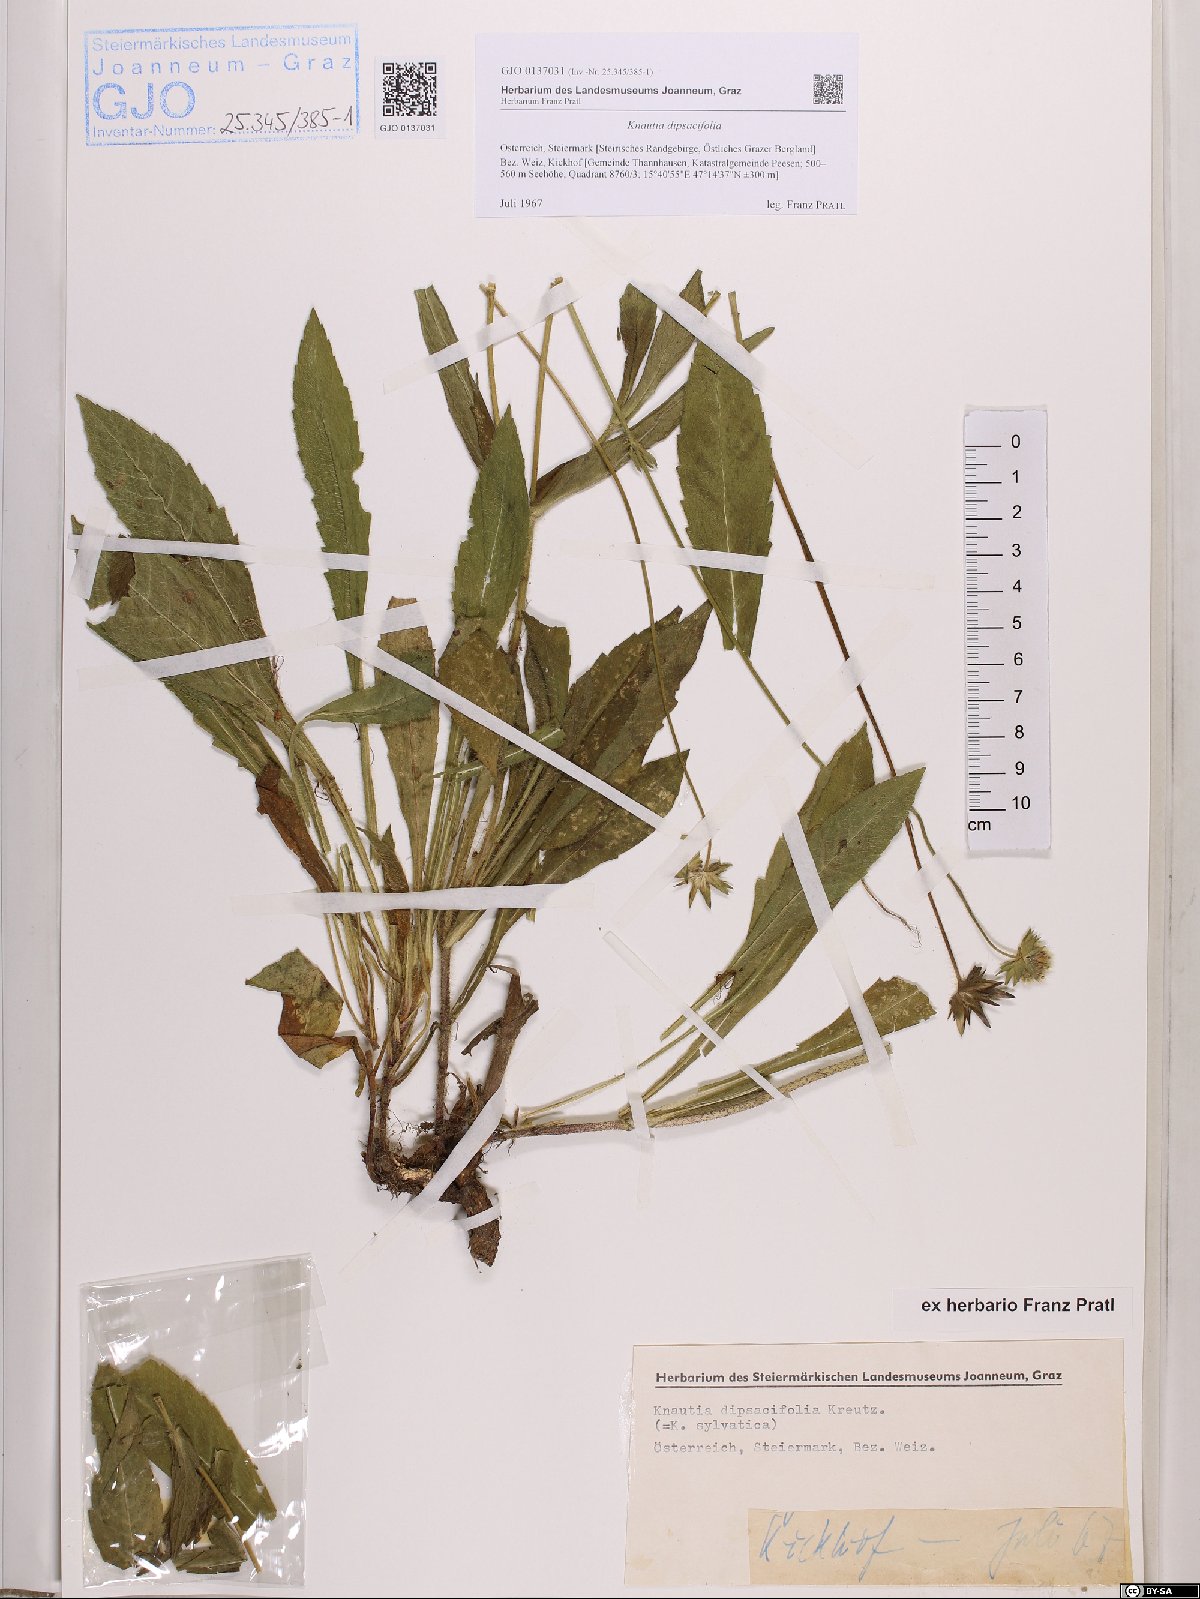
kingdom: Plantae
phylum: Tracheophyta
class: Magnoliopsida
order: Dipsacales
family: Caprifoliaceae
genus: Knautia
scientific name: Knautia dipsacifolia
